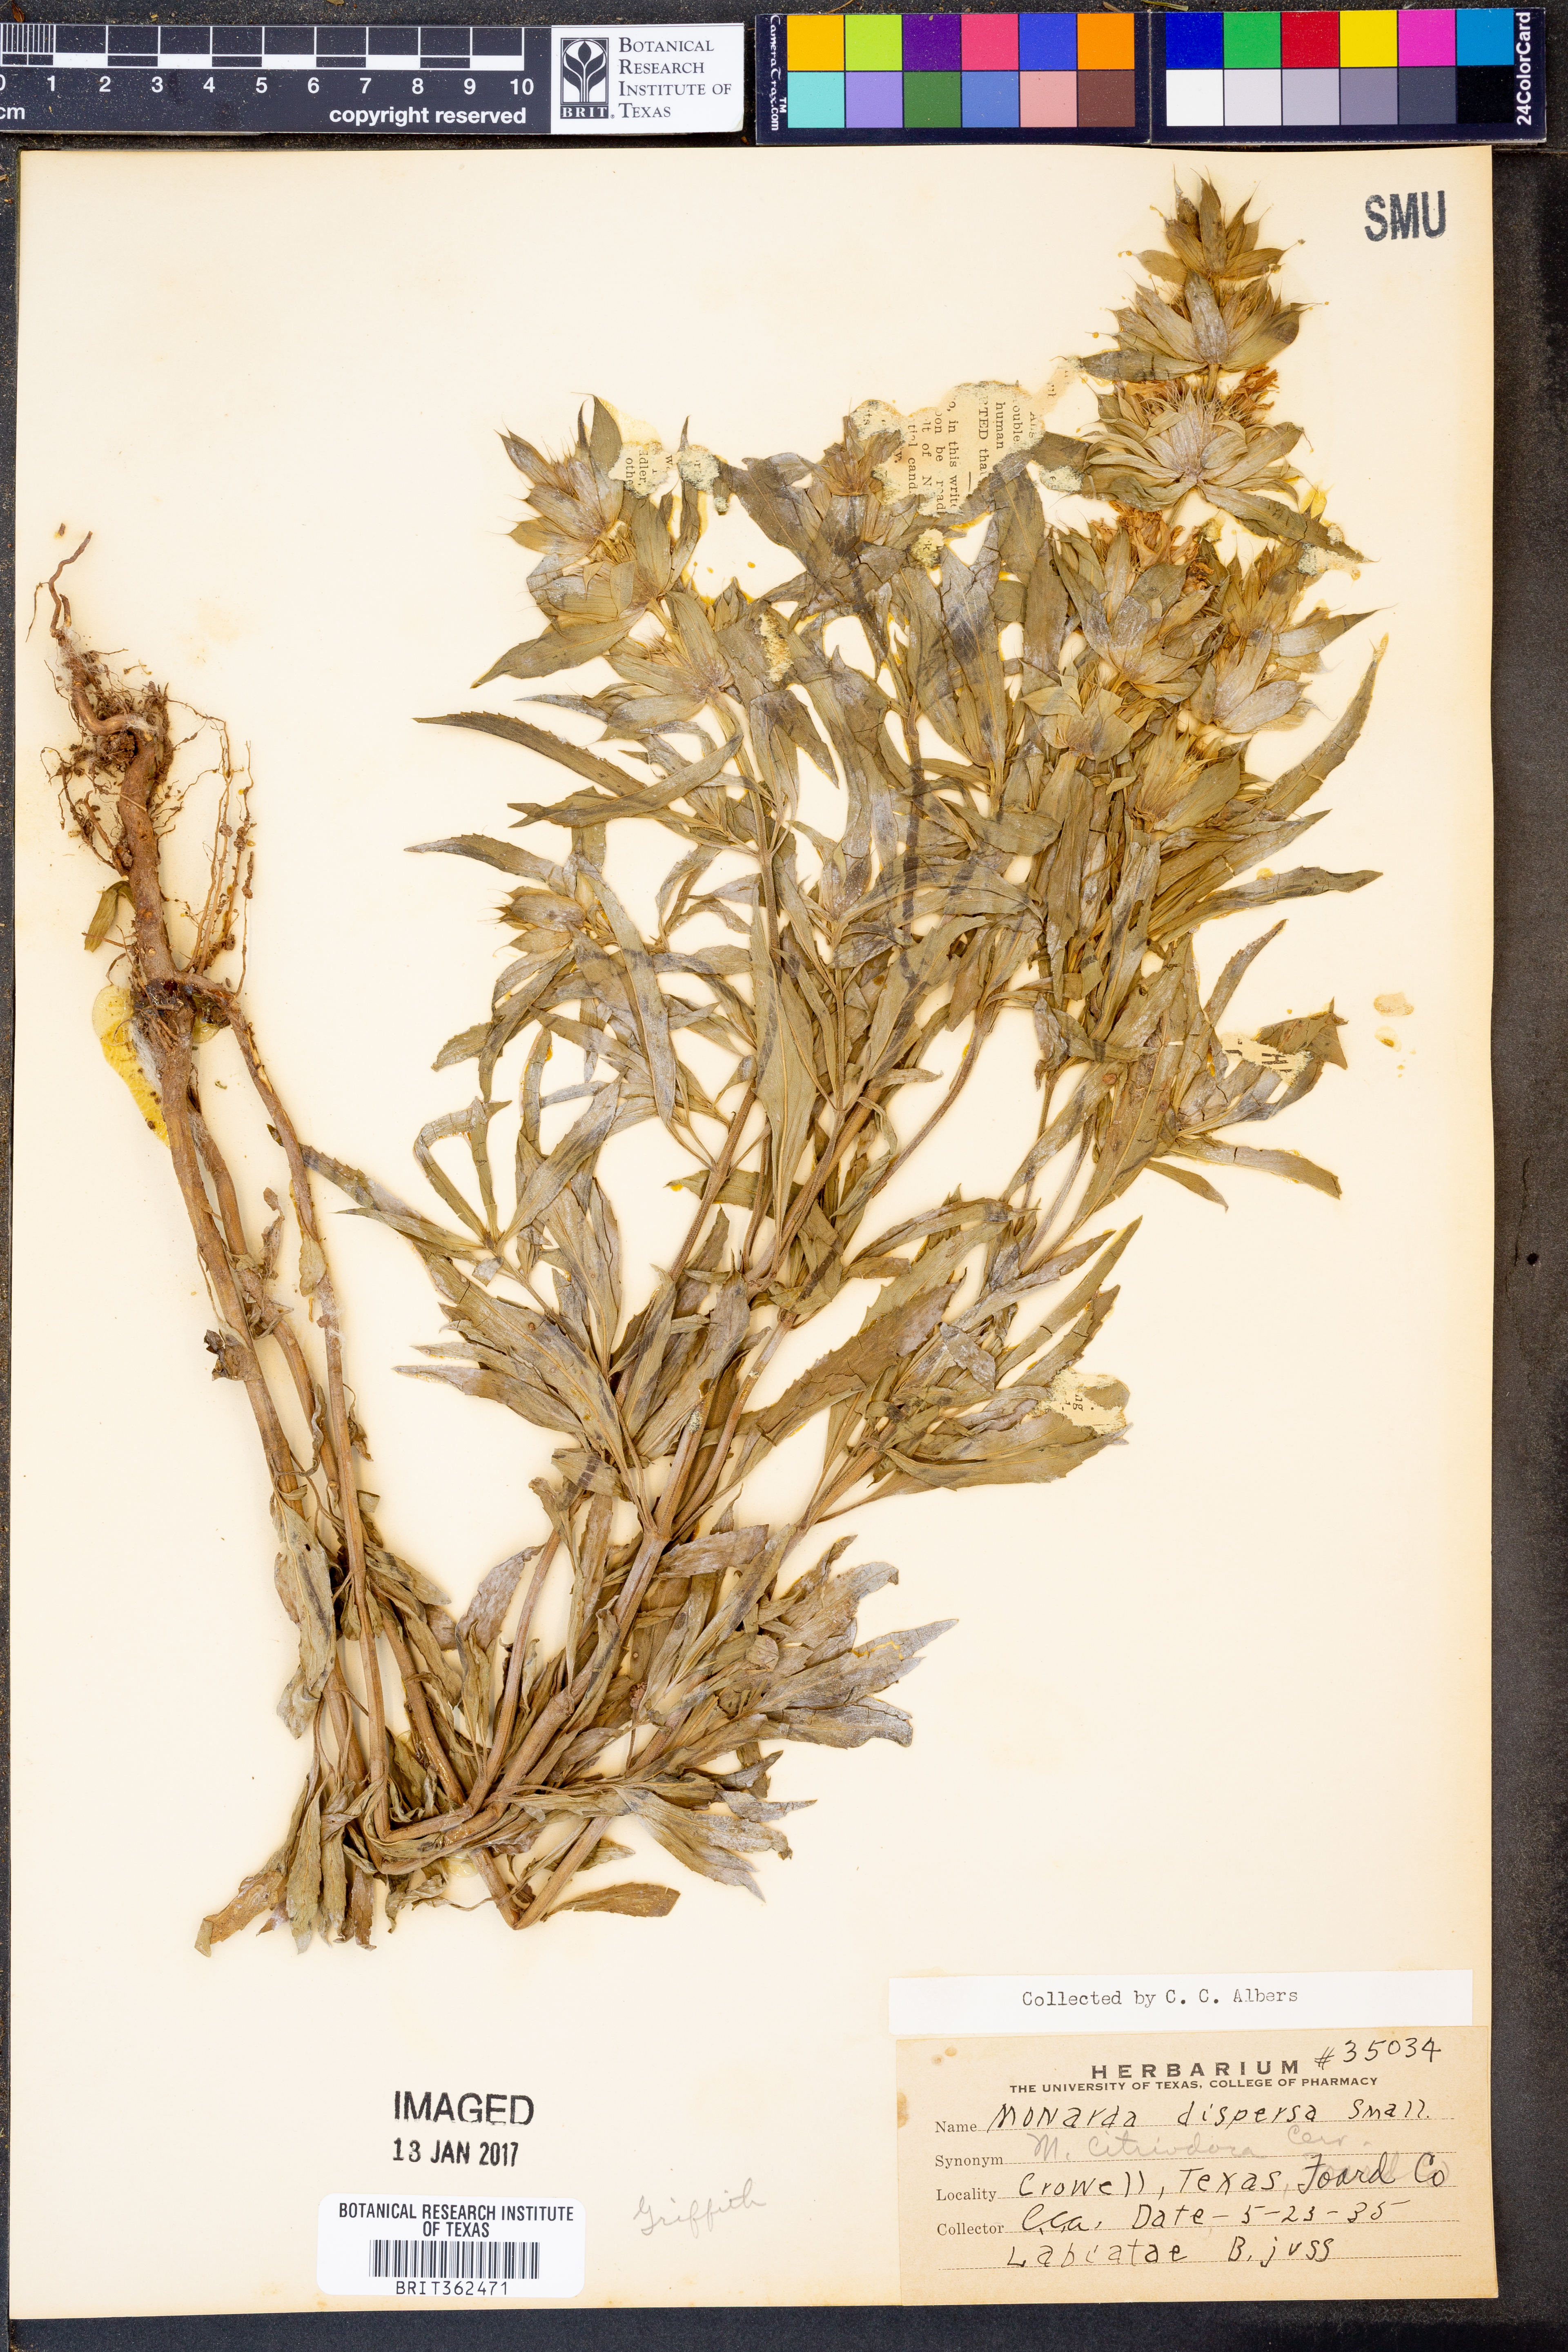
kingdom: Plantae
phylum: Tracheophyta
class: Magnoliopsida
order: Lamiales
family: Lamiaceae
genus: Monarda
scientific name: Monarda citriodora
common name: Lemon beebalm
